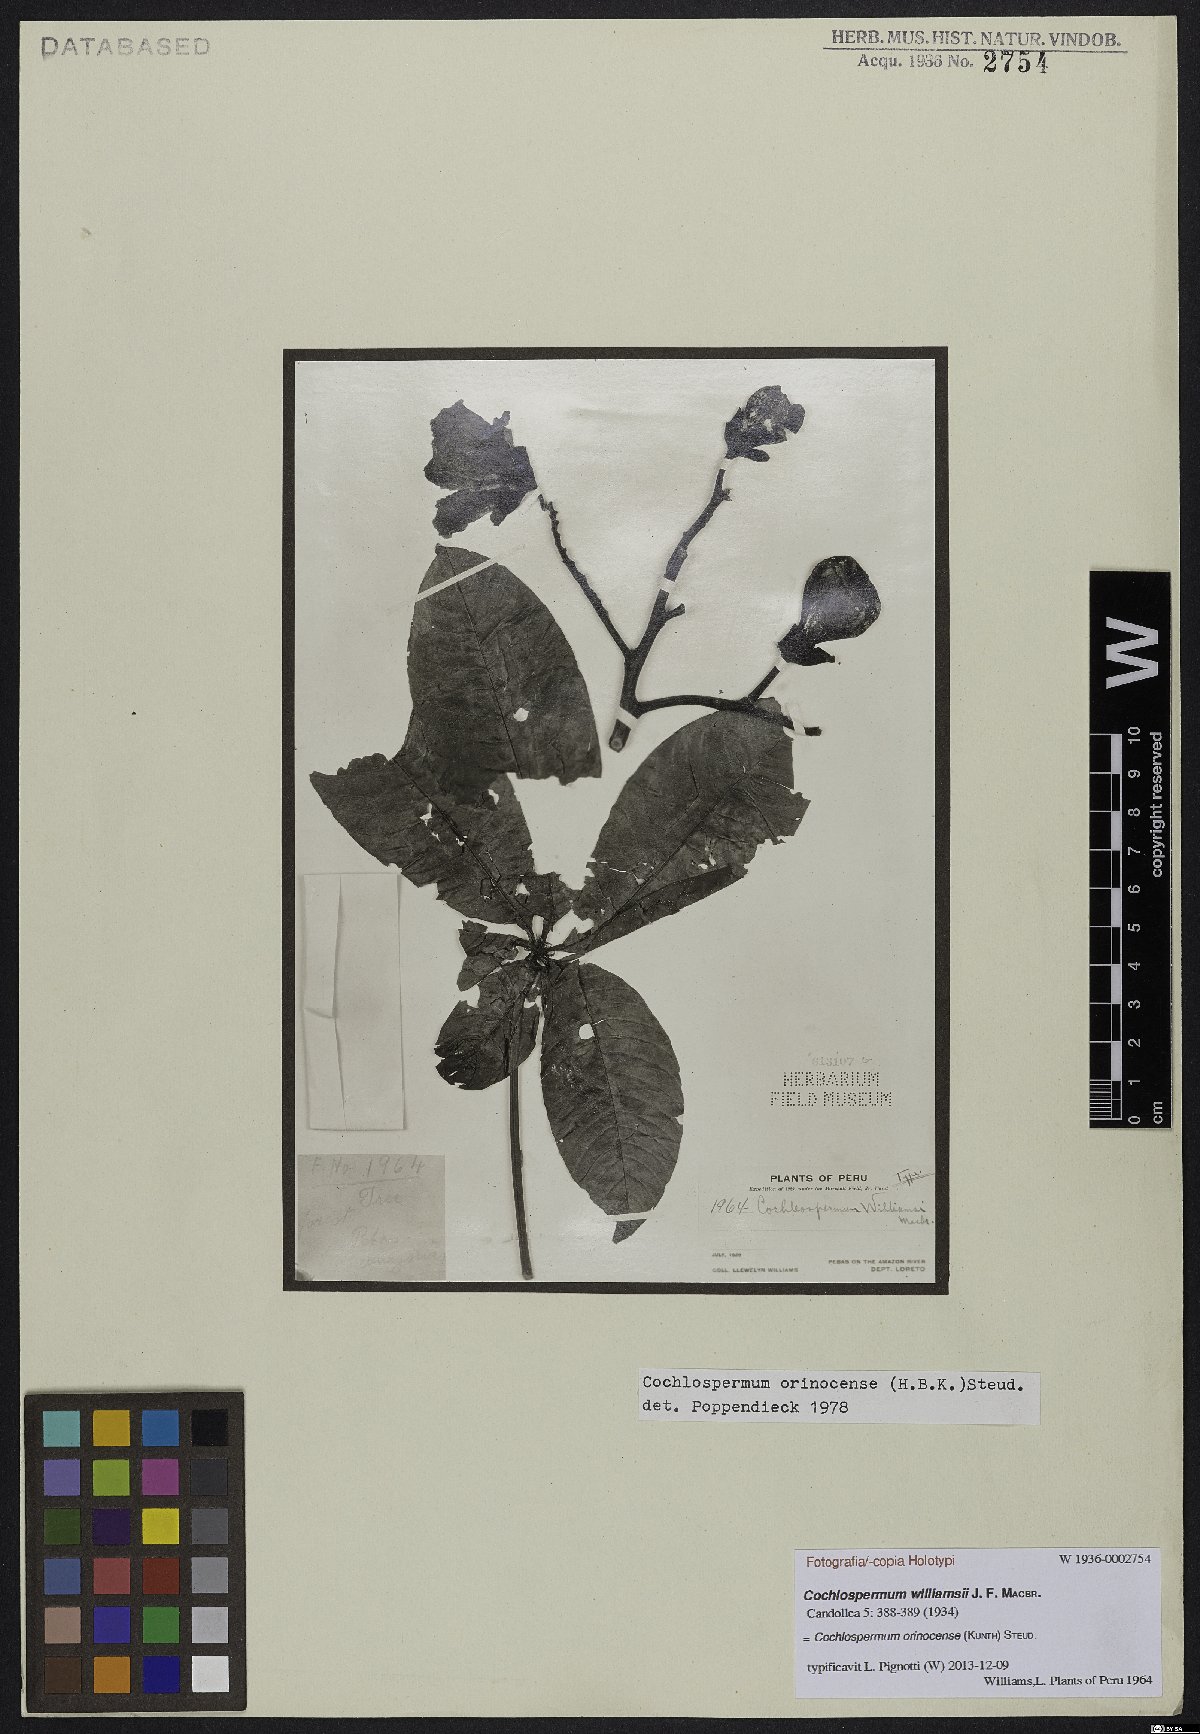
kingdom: Plantae
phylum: Tracheophyta
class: Magnoliopsida
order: Malvales
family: Cochlospermaceae
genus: Cochlospermum
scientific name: Cochlospermum orinocense
